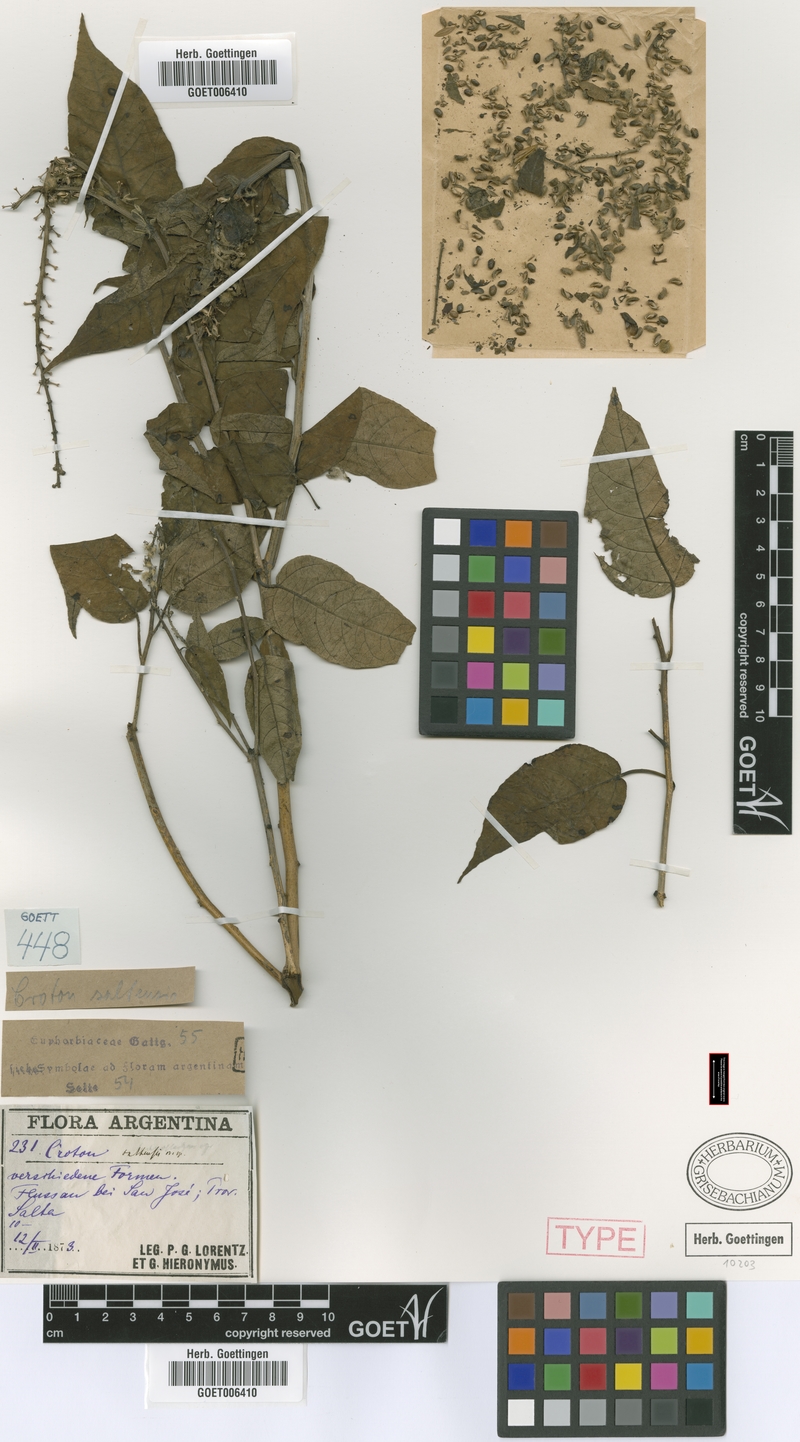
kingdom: Plantae
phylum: Tracheophyta
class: Magnoliopsida
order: Malpighiales
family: Euphorbiaceae
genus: Croton
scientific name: Croton saltensis
